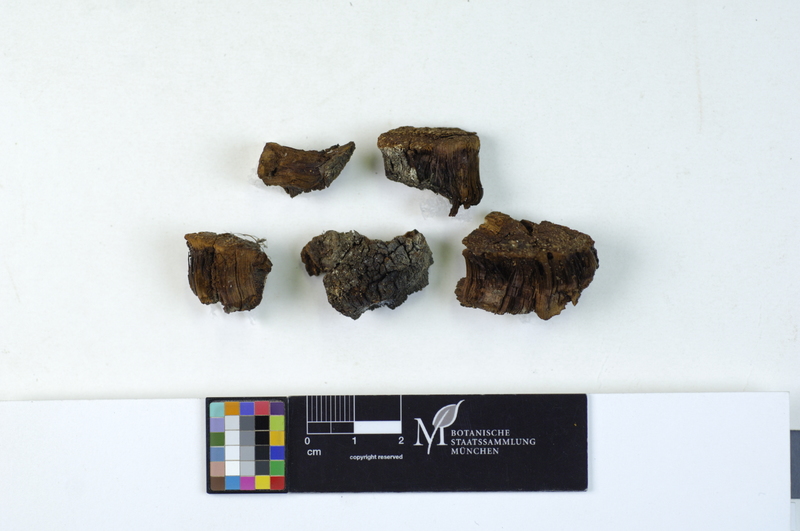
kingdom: Plantae
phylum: Tracheophyta
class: Magnoliopsida
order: Fagales
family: Betulaceae
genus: Betula
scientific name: Betula pubescens
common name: Downy birch
